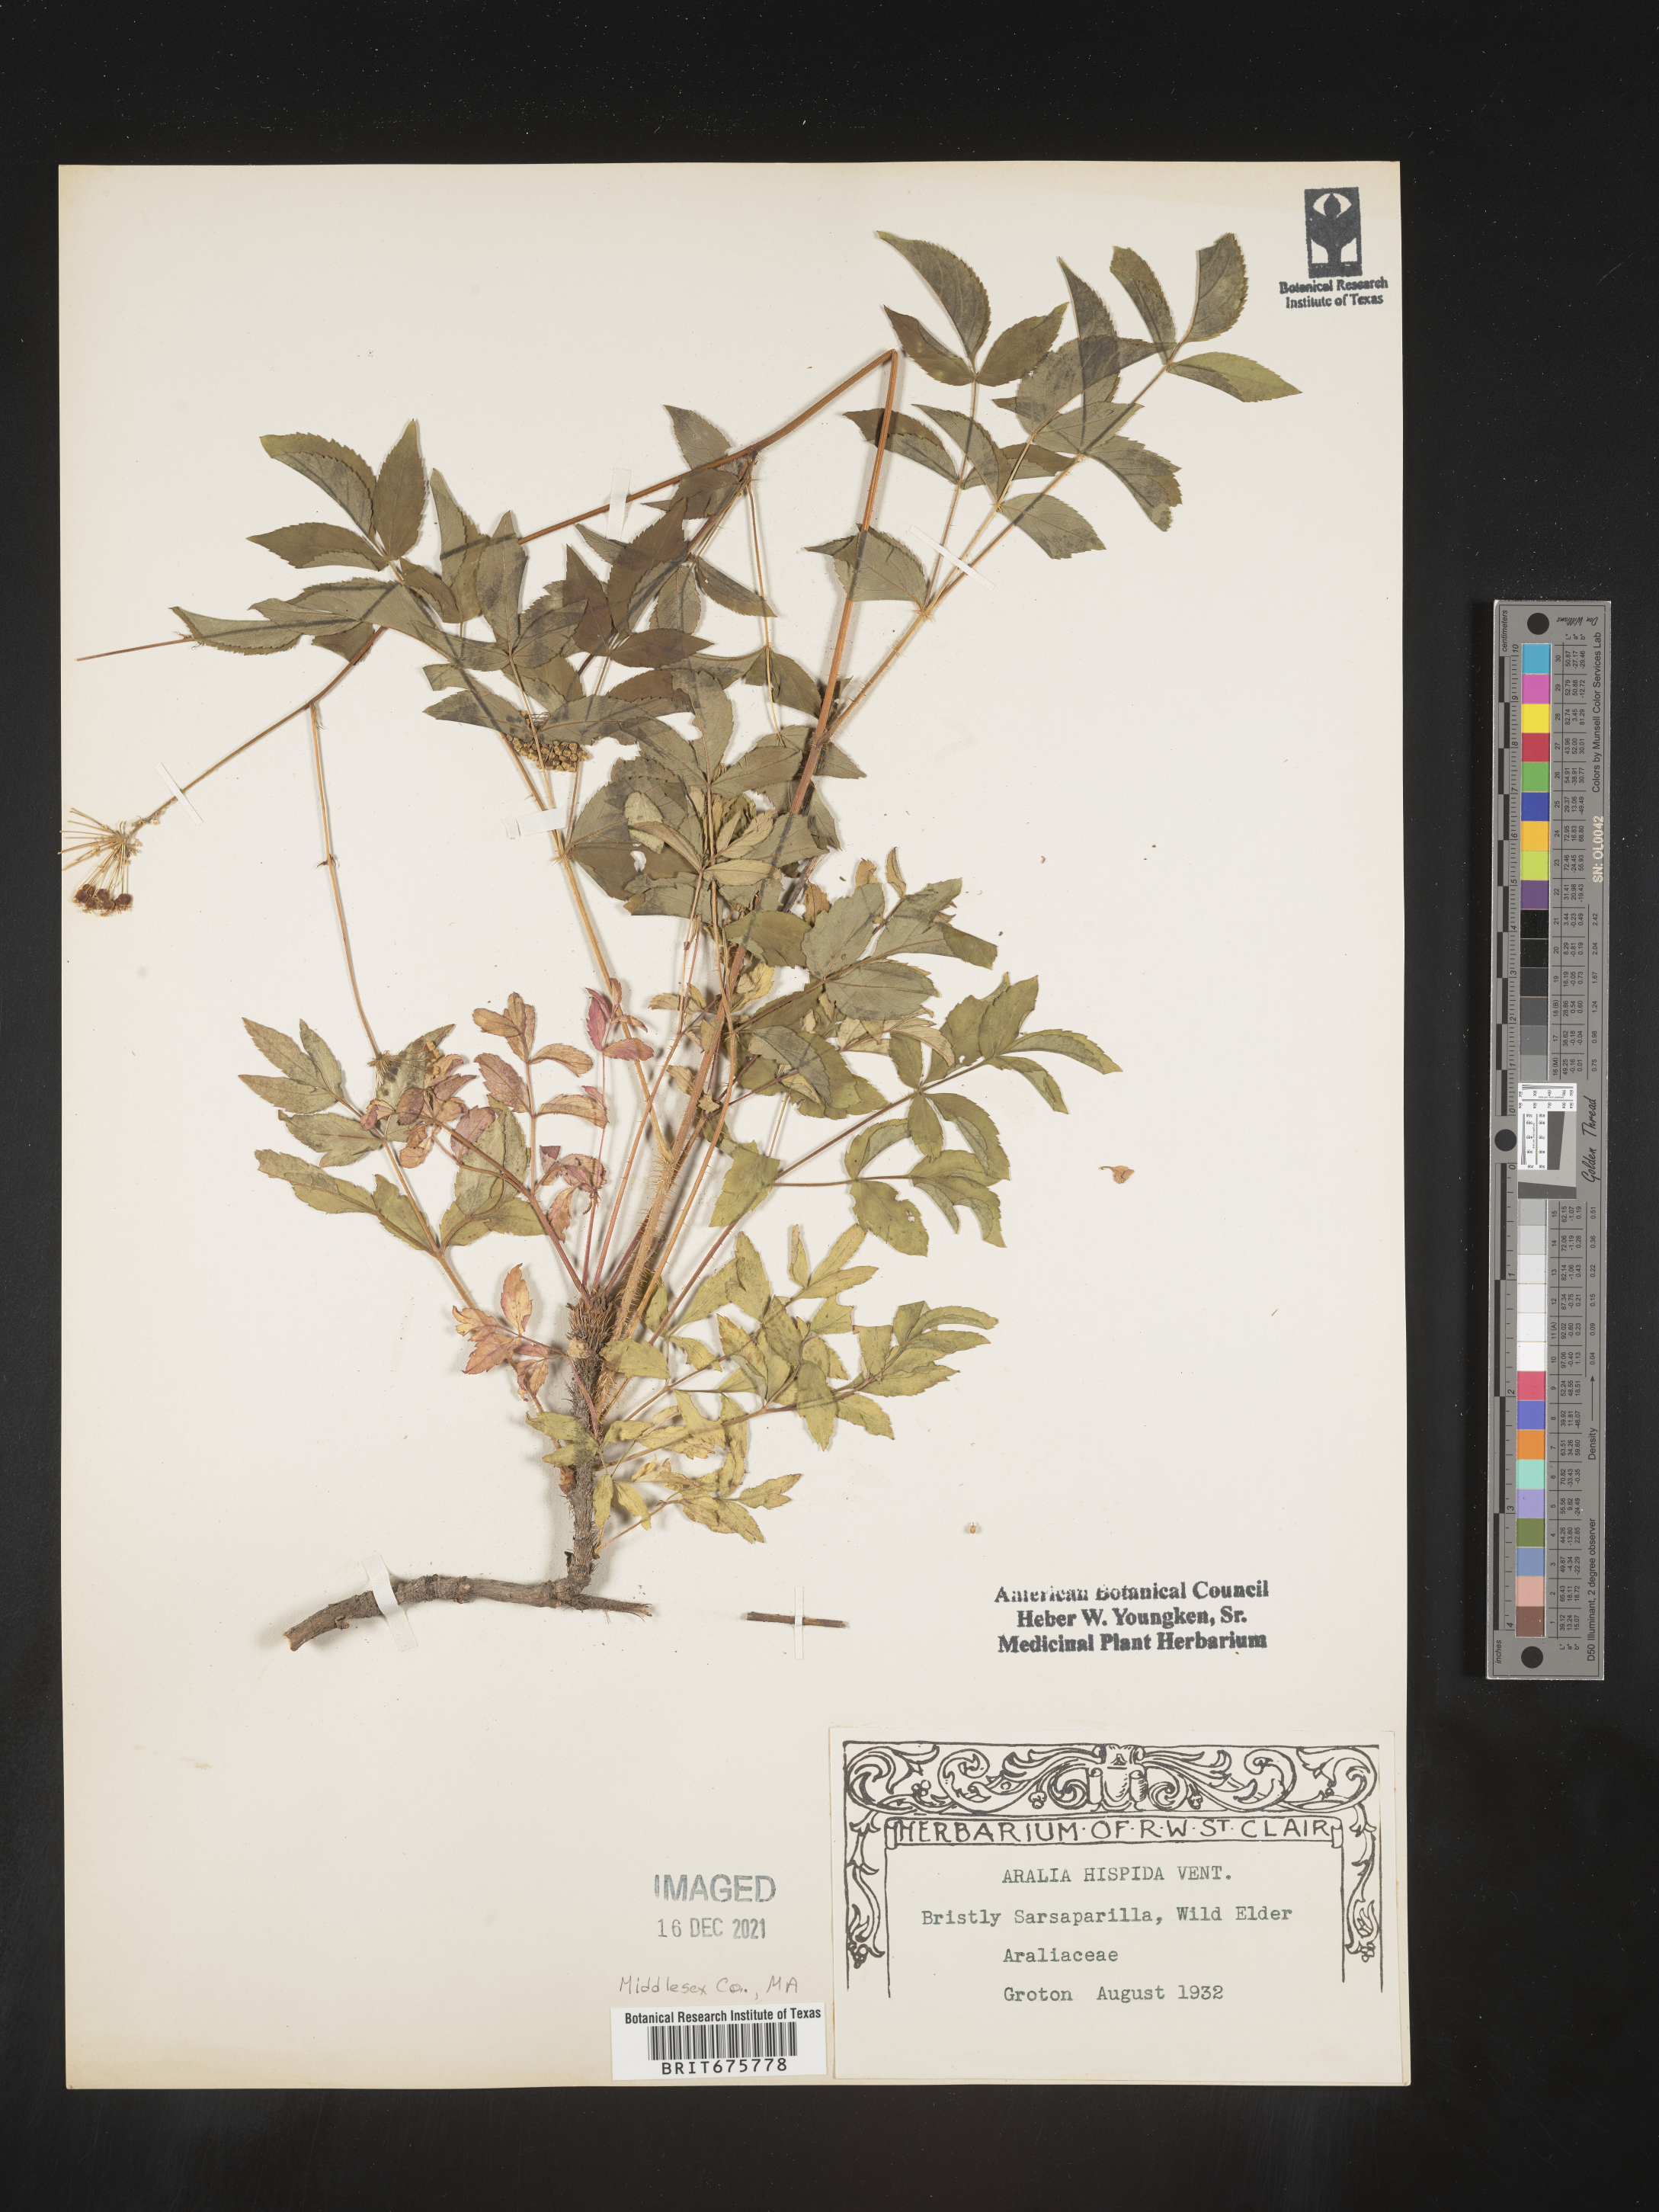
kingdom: Plantae
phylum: Tracheophyta
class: Magnoliopsida
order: Apiales
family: Araliaceae
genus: Aralia
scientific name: Aralia hispida
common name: Bristly sarsaparilla
